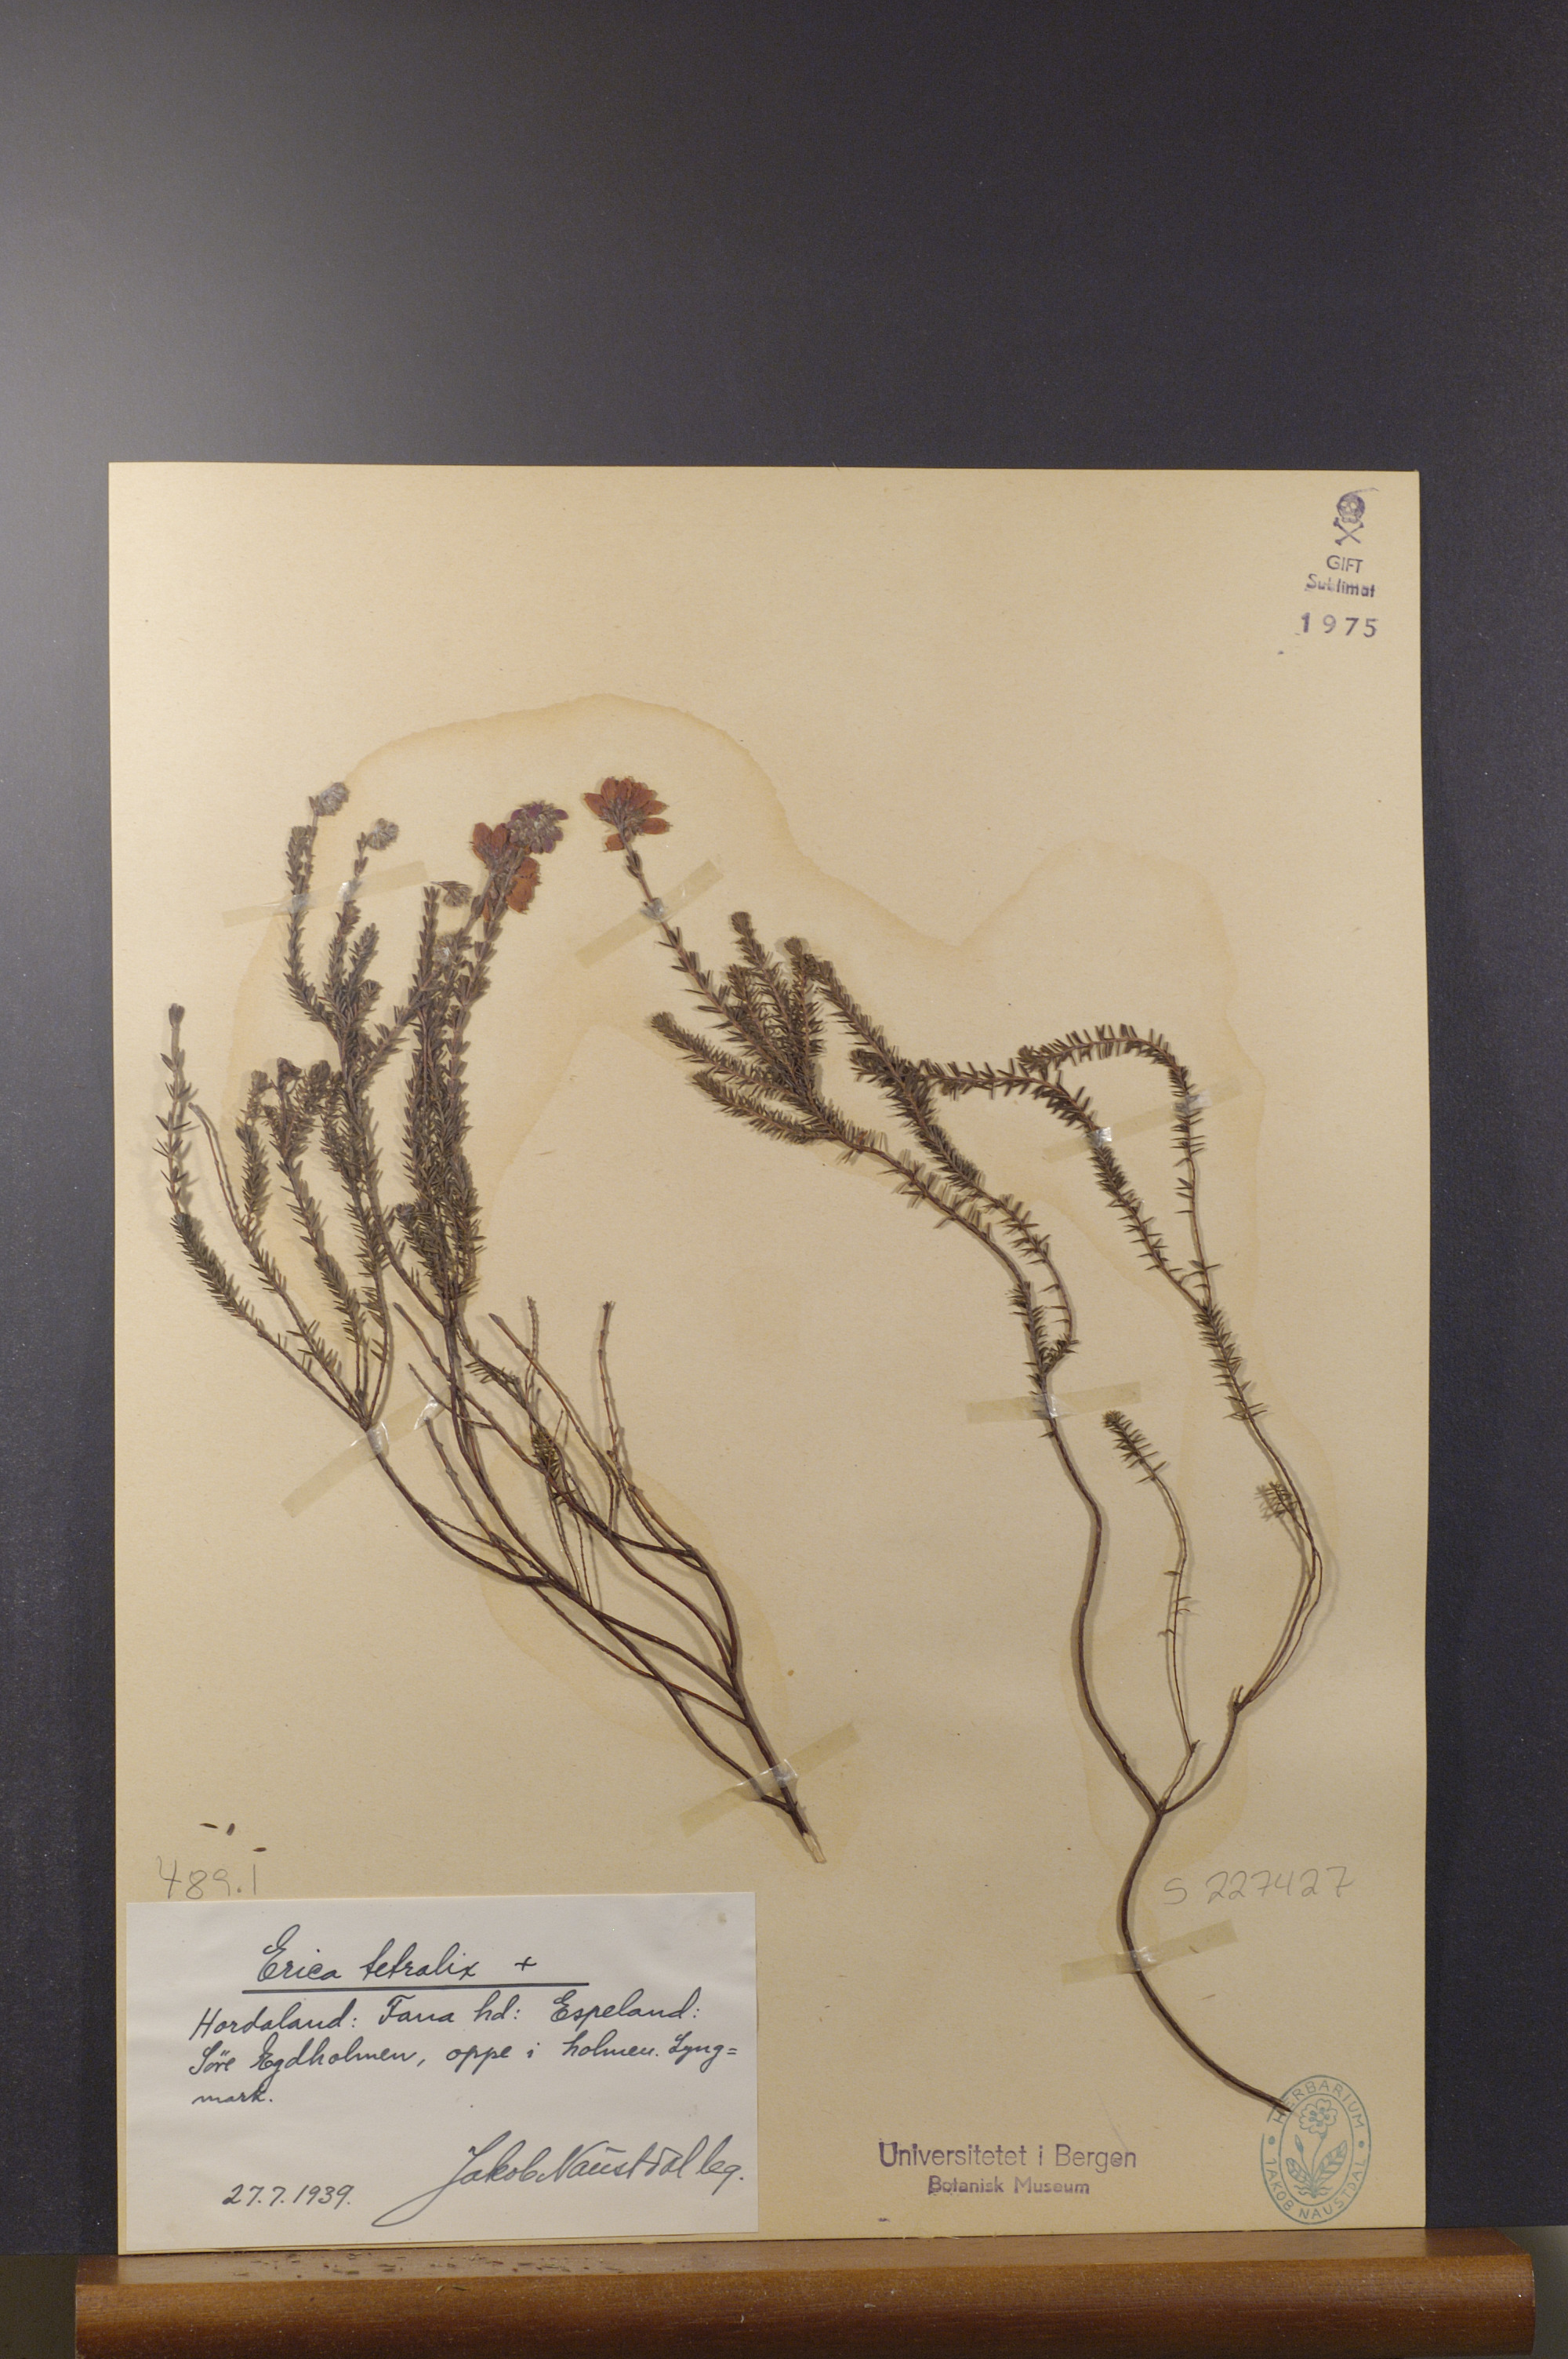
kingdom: Plantae
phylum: Tracheophyta
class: Magnoliopsida
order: Ericales
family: Ericaceae
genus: Erica
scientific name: Erica tetralix
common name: Cross-leaved heath
